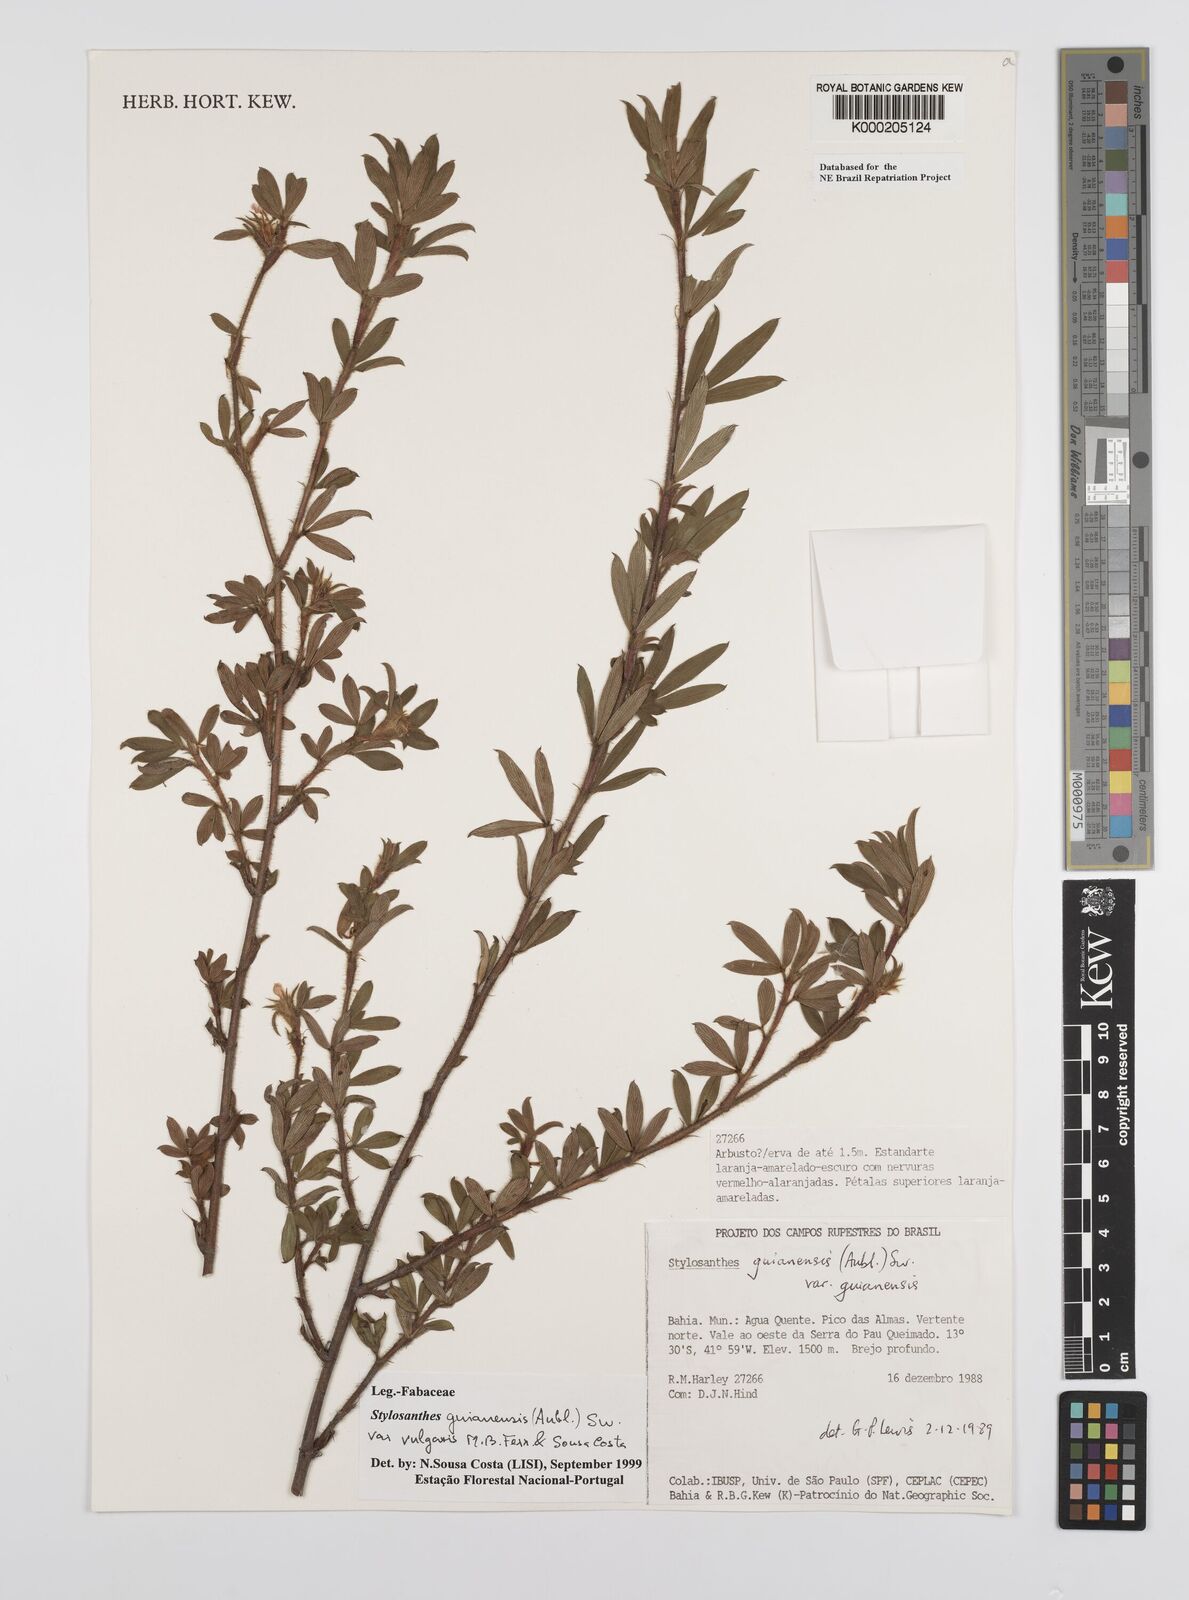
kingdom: Plantae
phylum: Tracheophyta
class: Magnoliopsida
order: Fabales
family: Fabaceae
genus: Stylosanthes
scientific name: Stylosanthes guianensis
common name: Pencil flower
